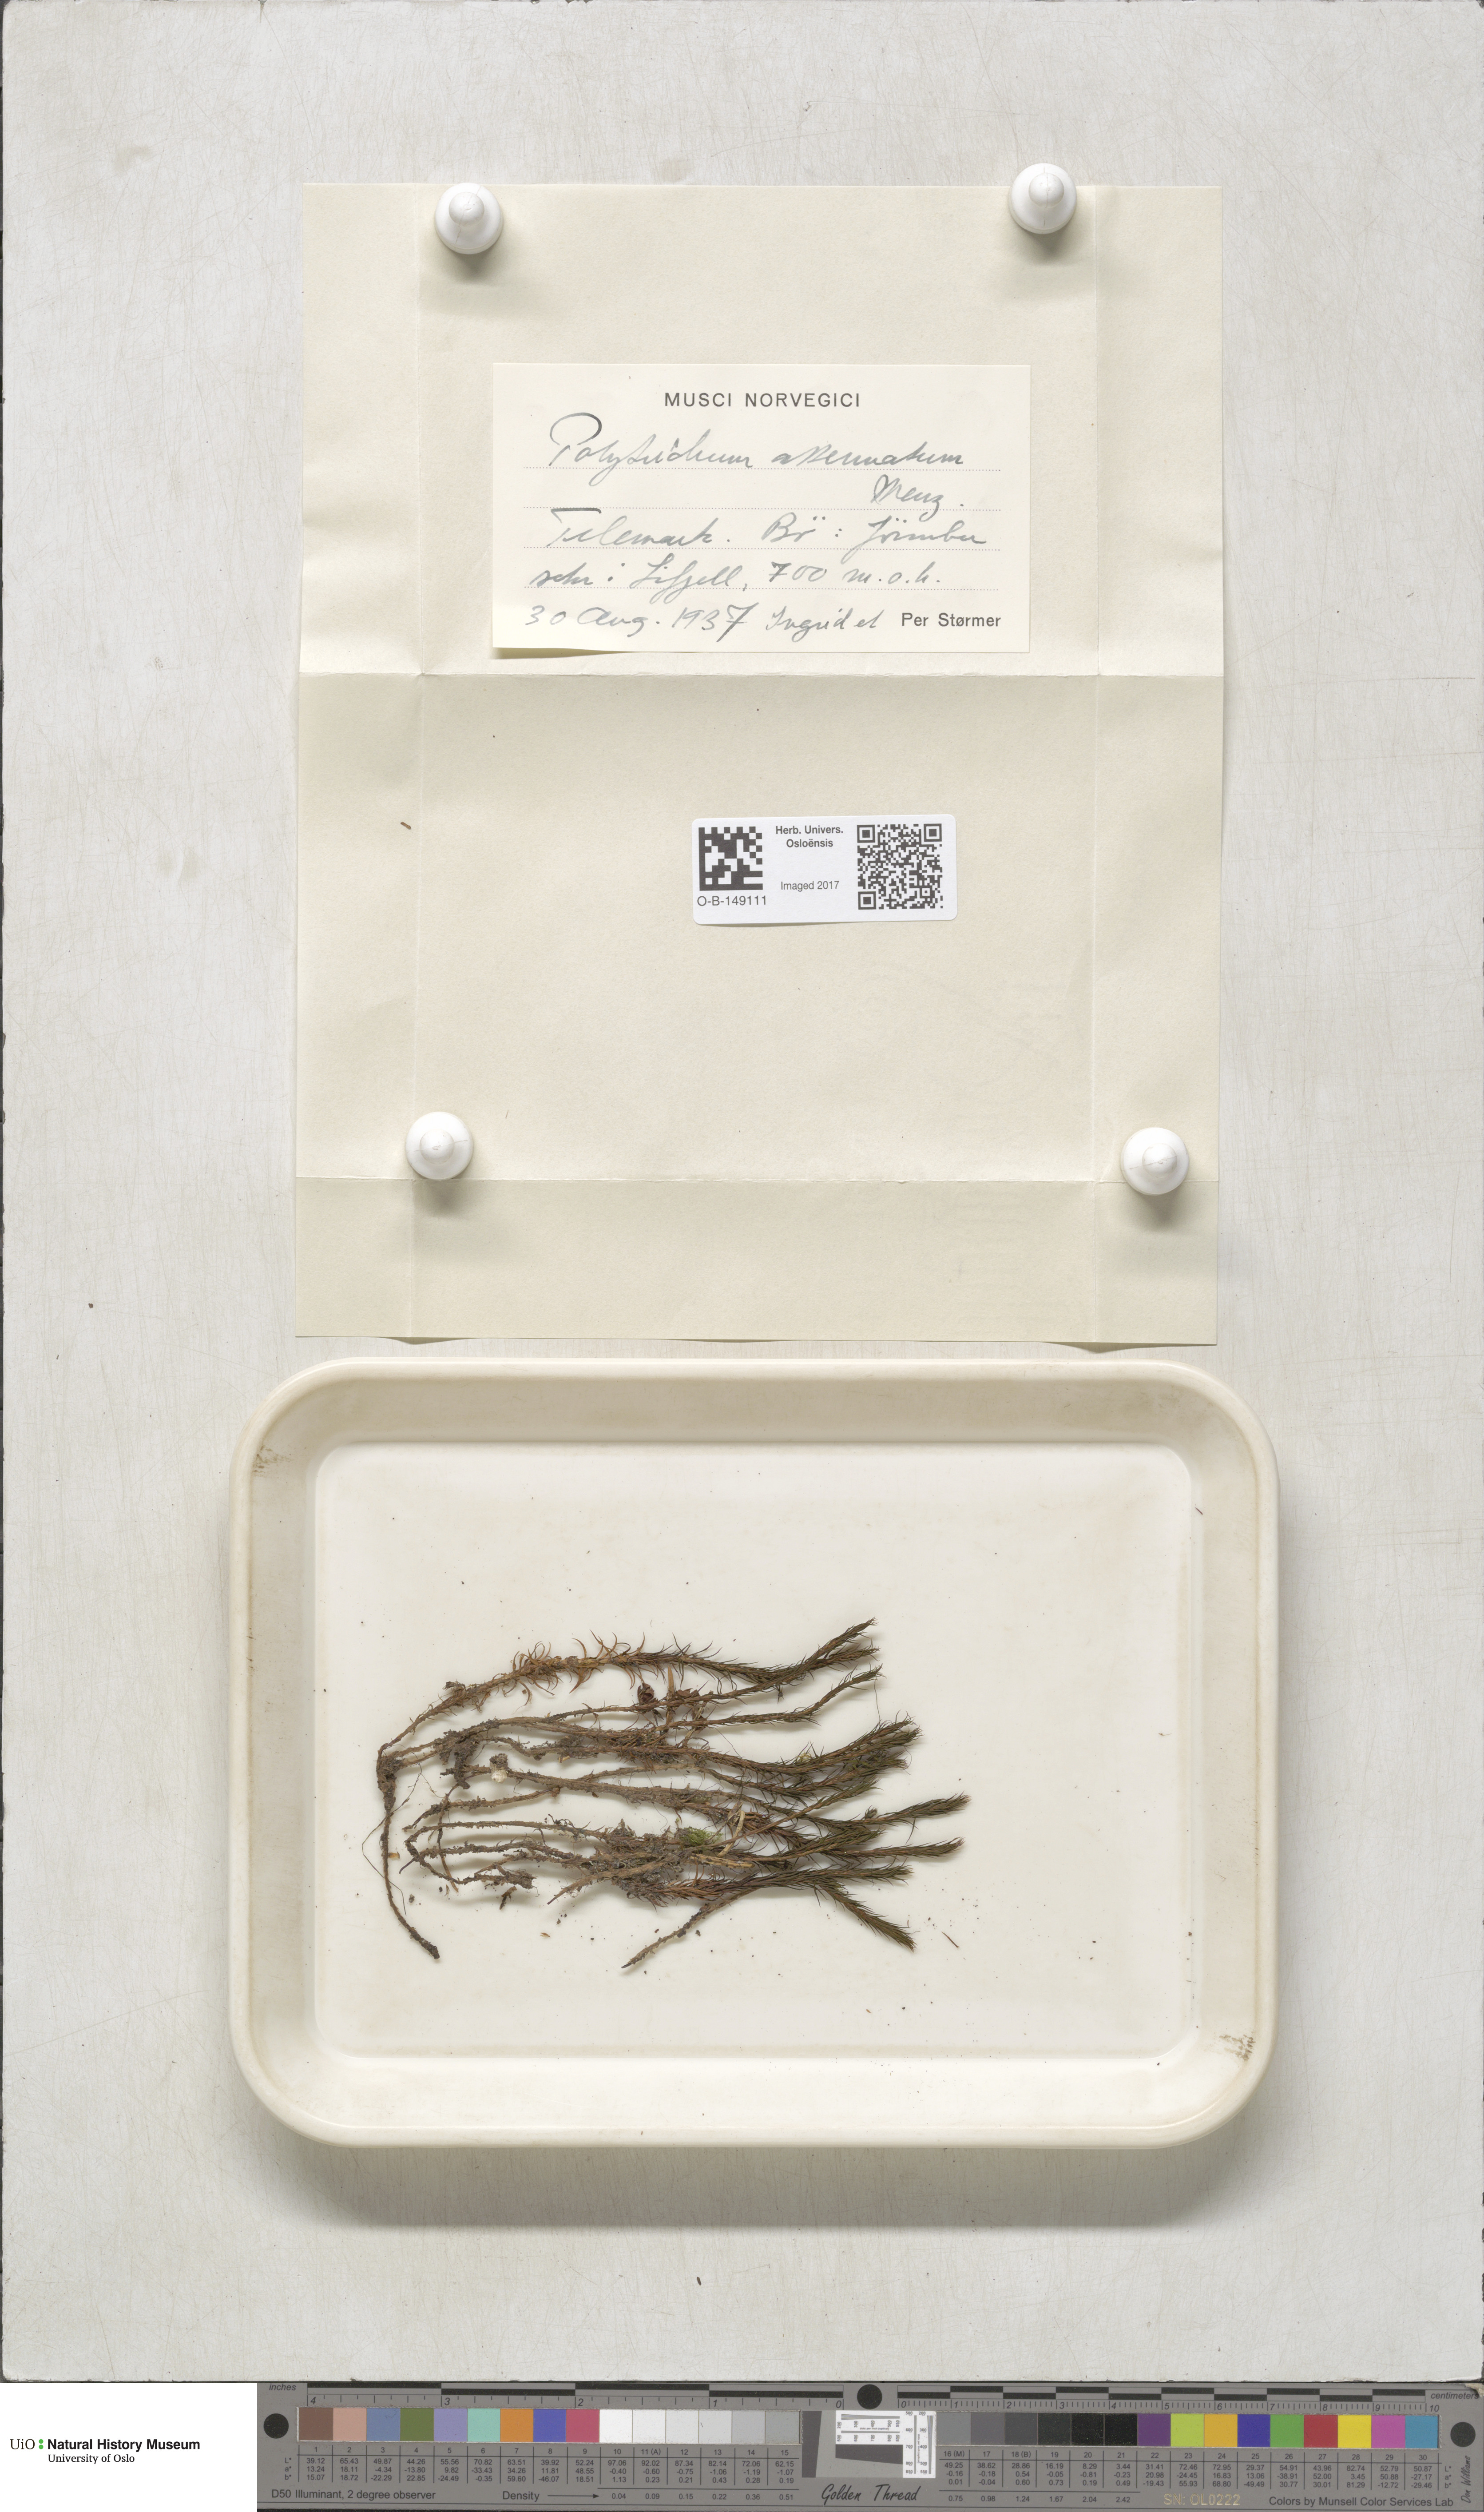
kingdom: Plantae
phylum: Bryophyta
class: Polytrichopsida
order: Polytrichales
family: Polytrichaceae
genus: Polytrichum
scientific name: Polytrichum formosum
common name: Bank haircap moss
